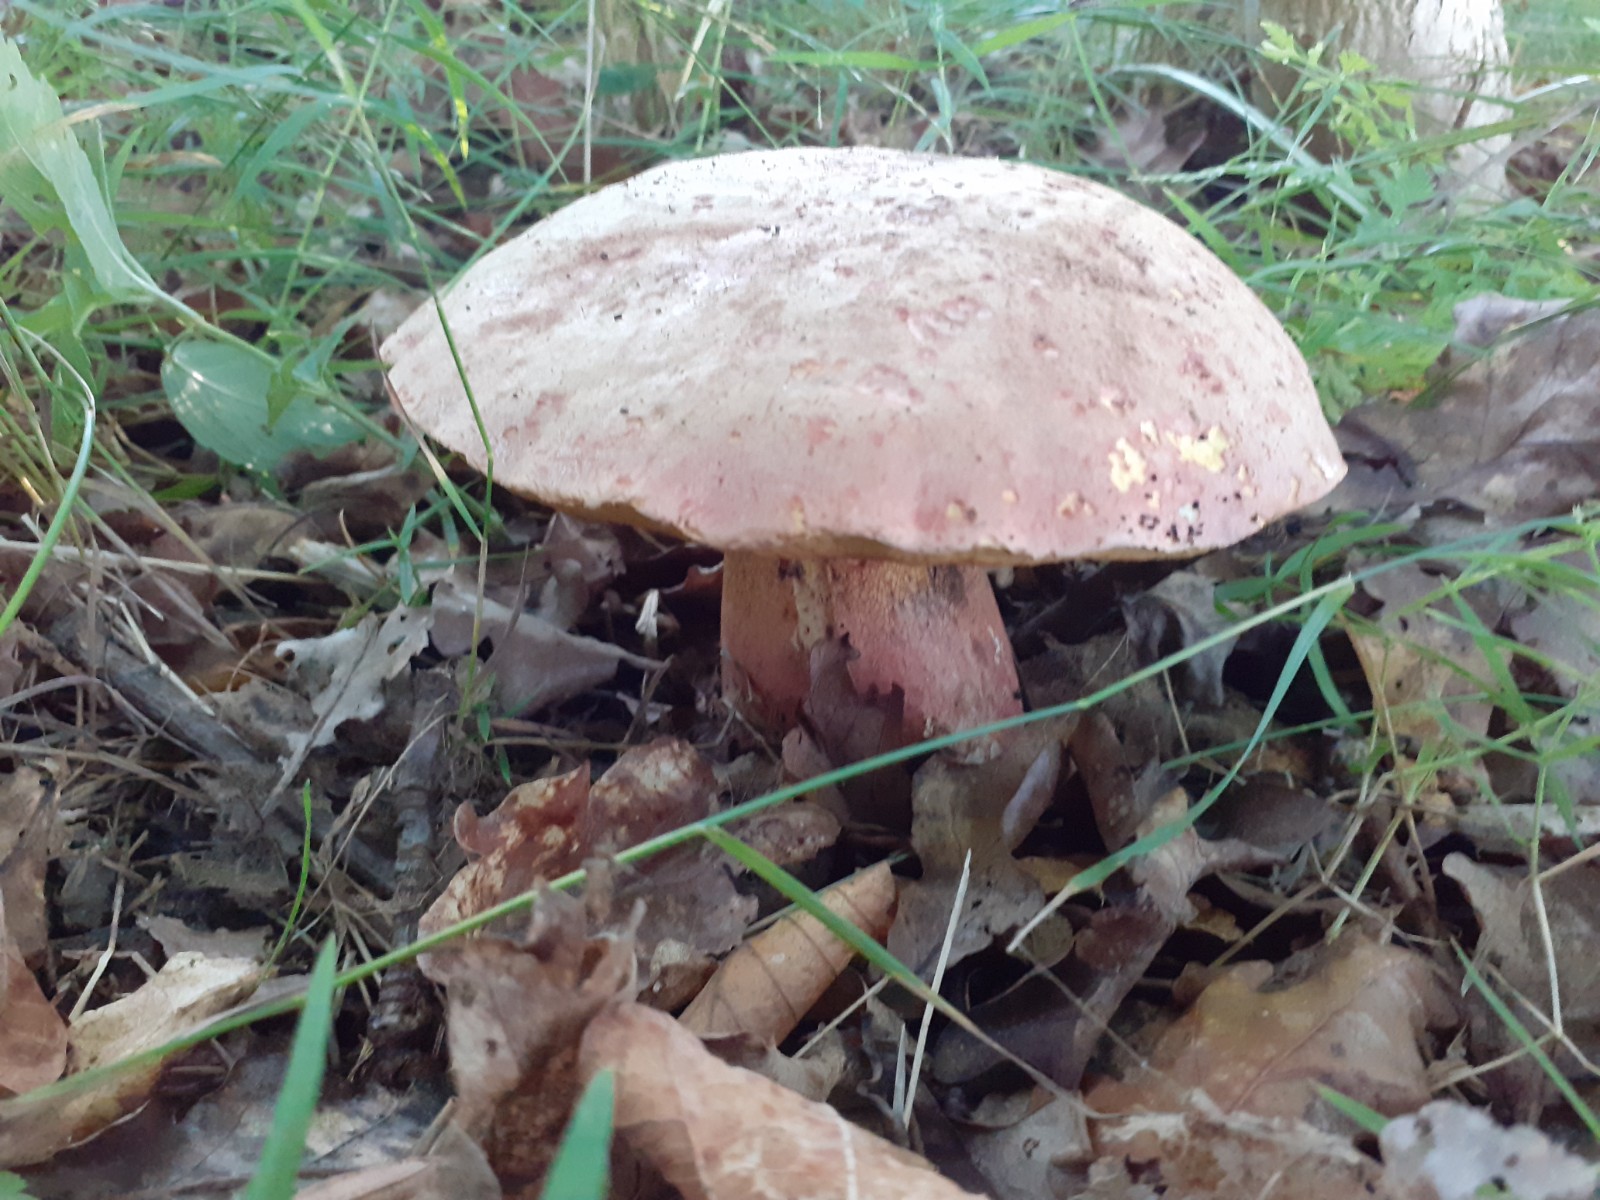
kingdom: Fungi
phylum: Basidiomycota
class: Agaricomycetes
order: Boletales
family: Boletaceae
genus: Rubroboletus
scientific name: Rubroboletus legaliae
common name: djævle-rørhat
